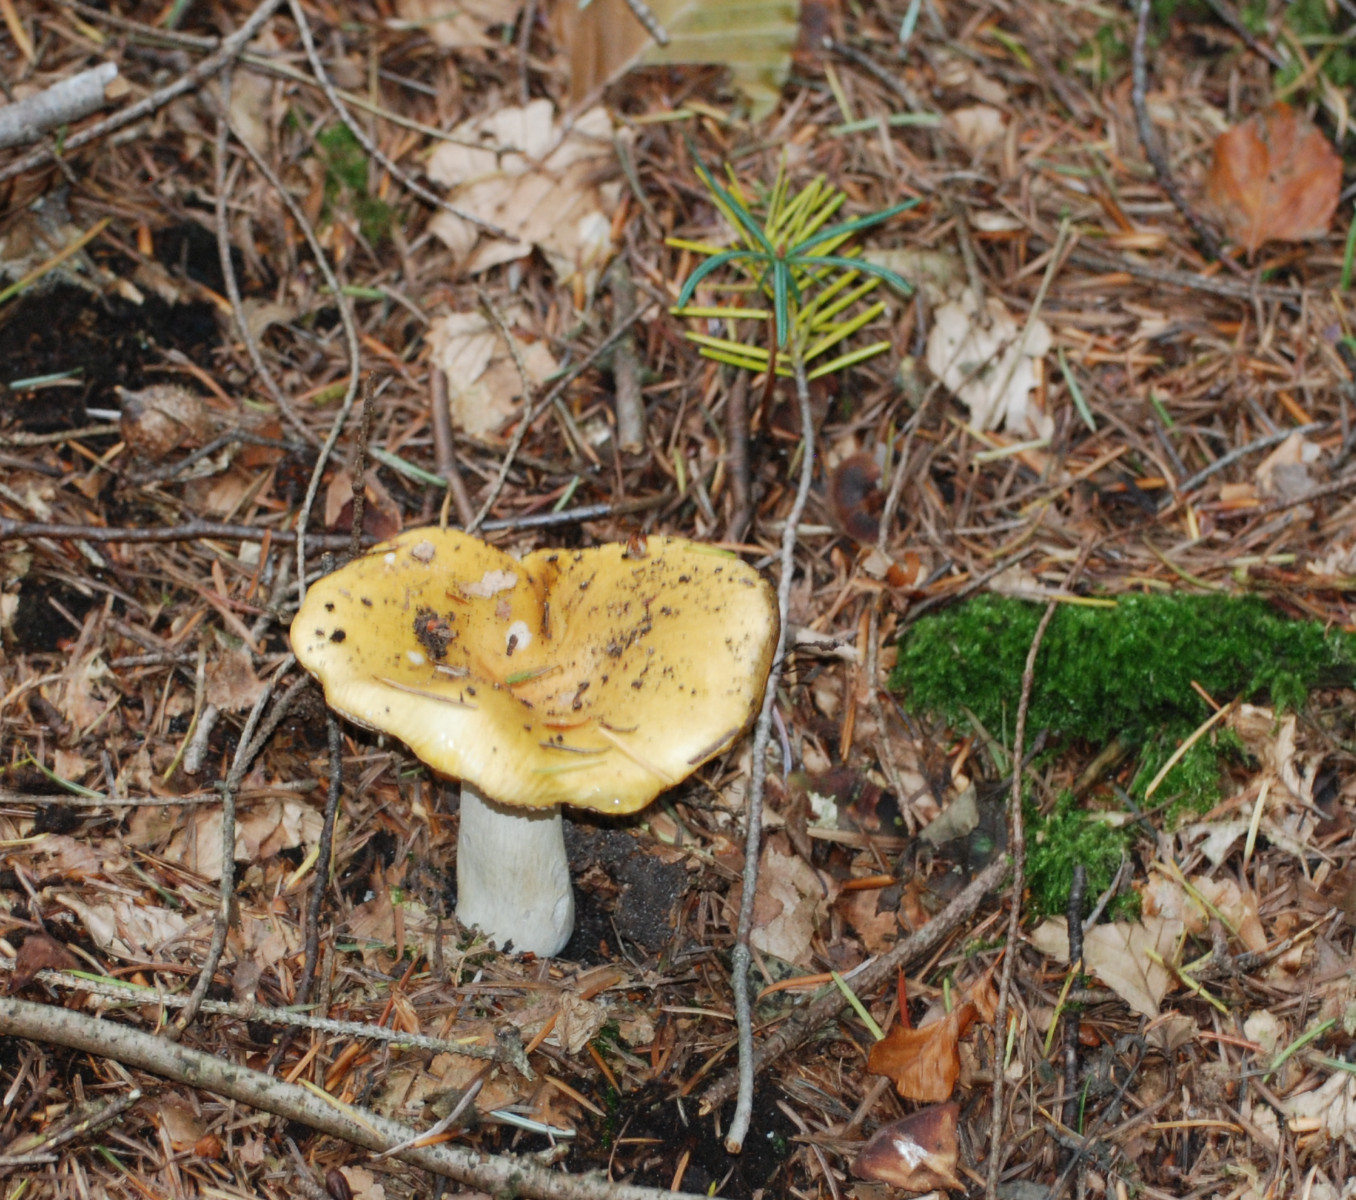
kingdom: Fungi
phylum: Basidiomycota
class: Agaricomycetes
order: Russulales
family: Russulaceae
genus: Russula
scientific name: Russula ochroleuca
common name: okkergul skørhat
